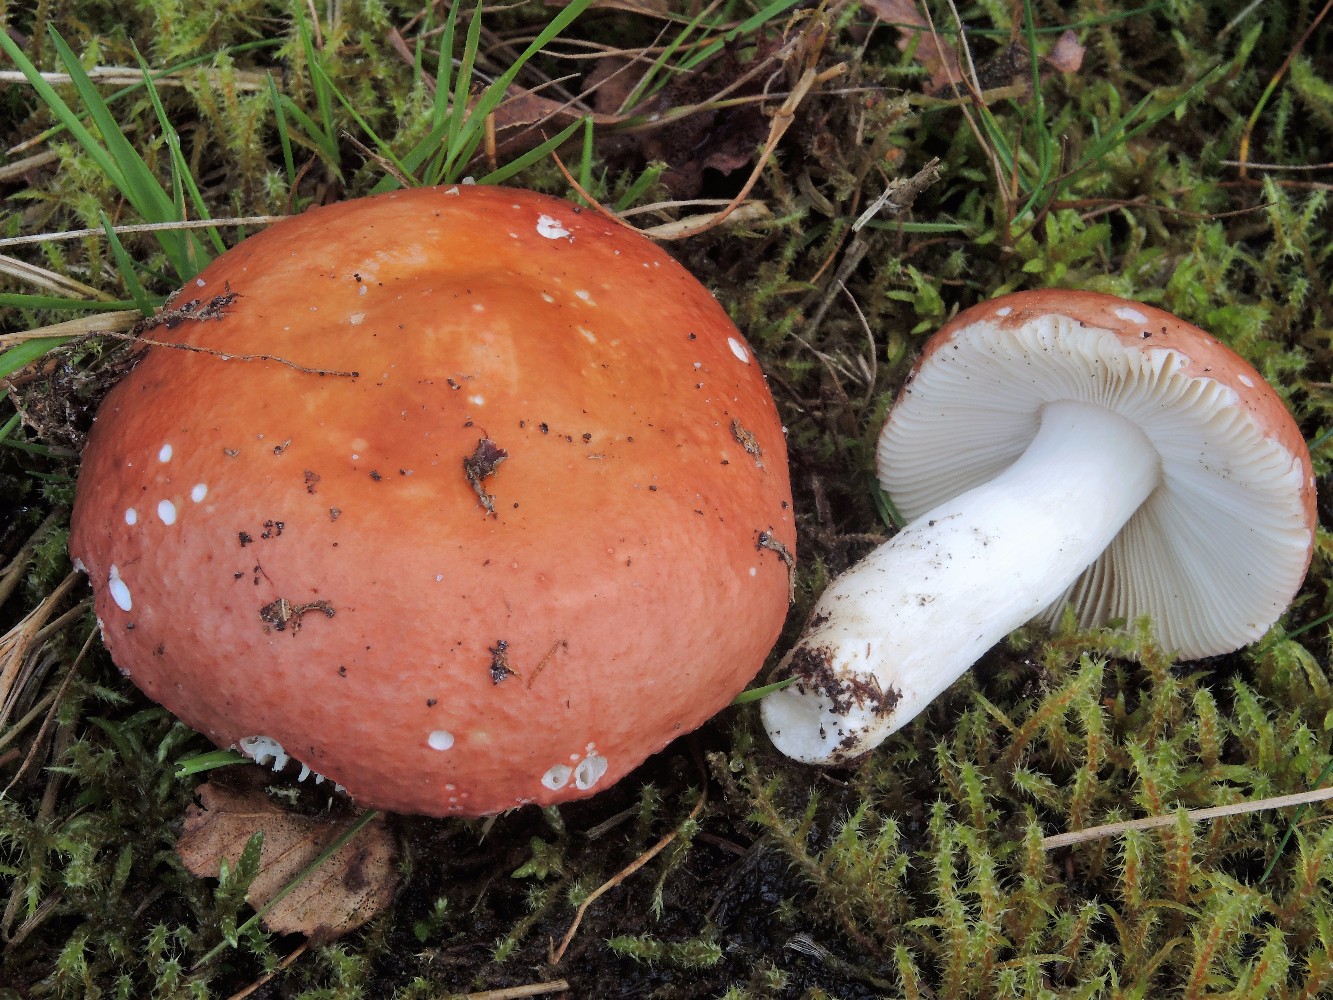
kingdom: Fungi
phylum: Basidiomycota
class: Agaricomycetes
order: Russulales
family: Russulaceae
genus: Russula
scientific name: Russula velenovskyi
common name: orangerød skørhat
